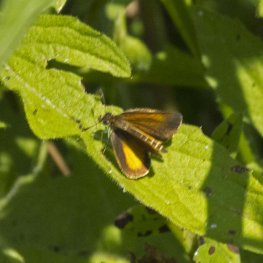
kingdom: Animalia
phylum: Arthropoda
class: Insecta
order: Lepidoptera
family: Hesperiidae
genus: Ancyloxypha
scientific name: Ancyloxypha numitor
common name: Least Skipper
